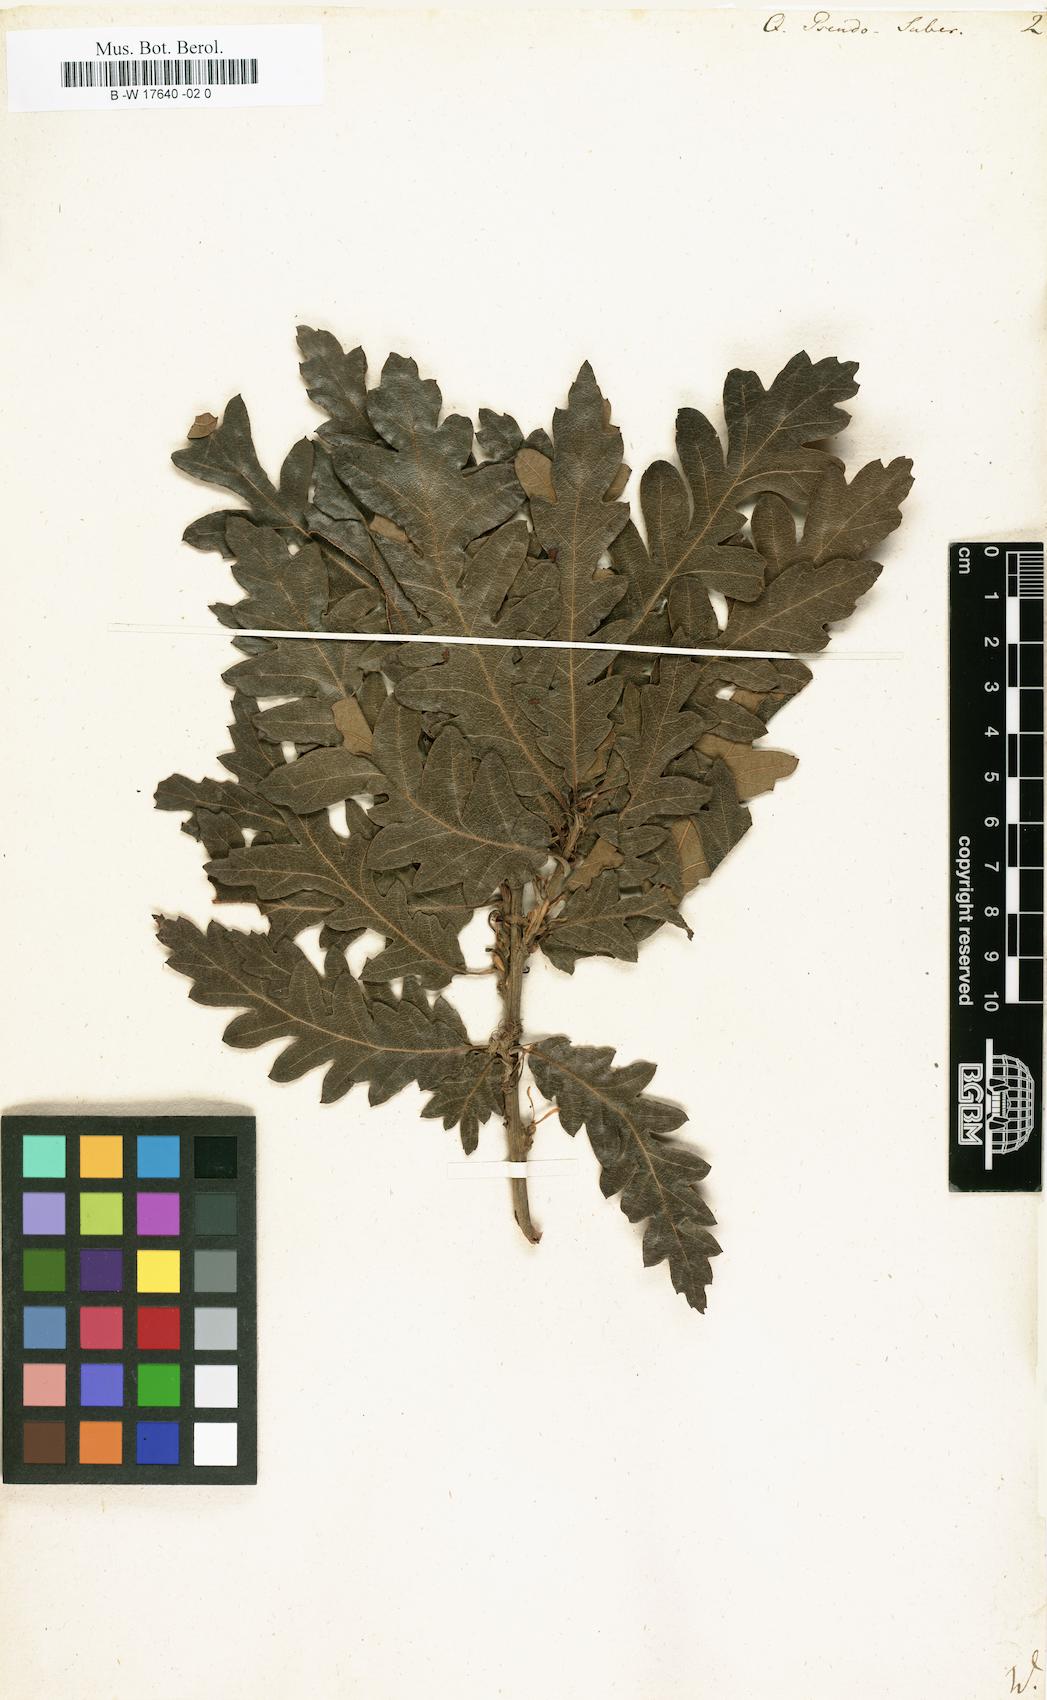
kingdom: Plantae
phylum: Tracheophyta
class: Magnoliopsida
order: Fagales
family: Fagaceae
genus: Quercus
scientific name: Quercus
